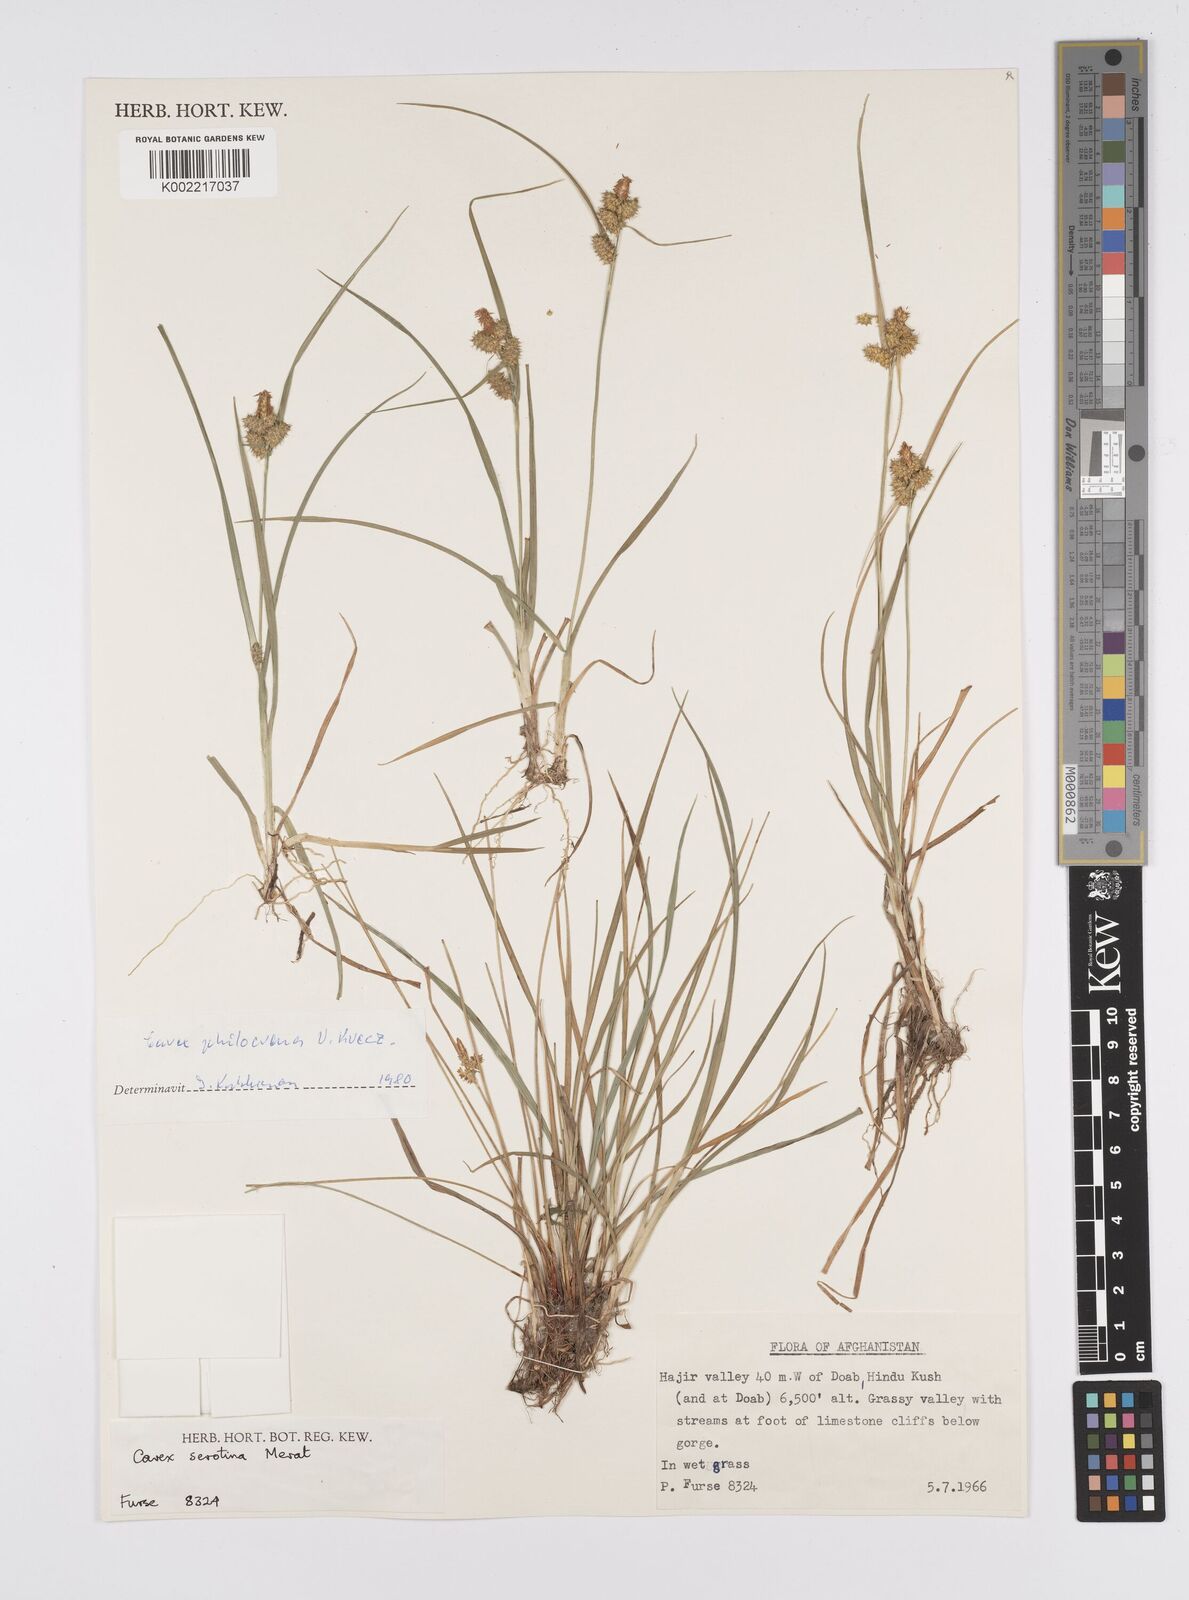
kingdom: Plantae
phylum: Tracheophyta
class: Liliopsida
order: Poales
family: Cyperaceae
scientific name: Cyperaceae
